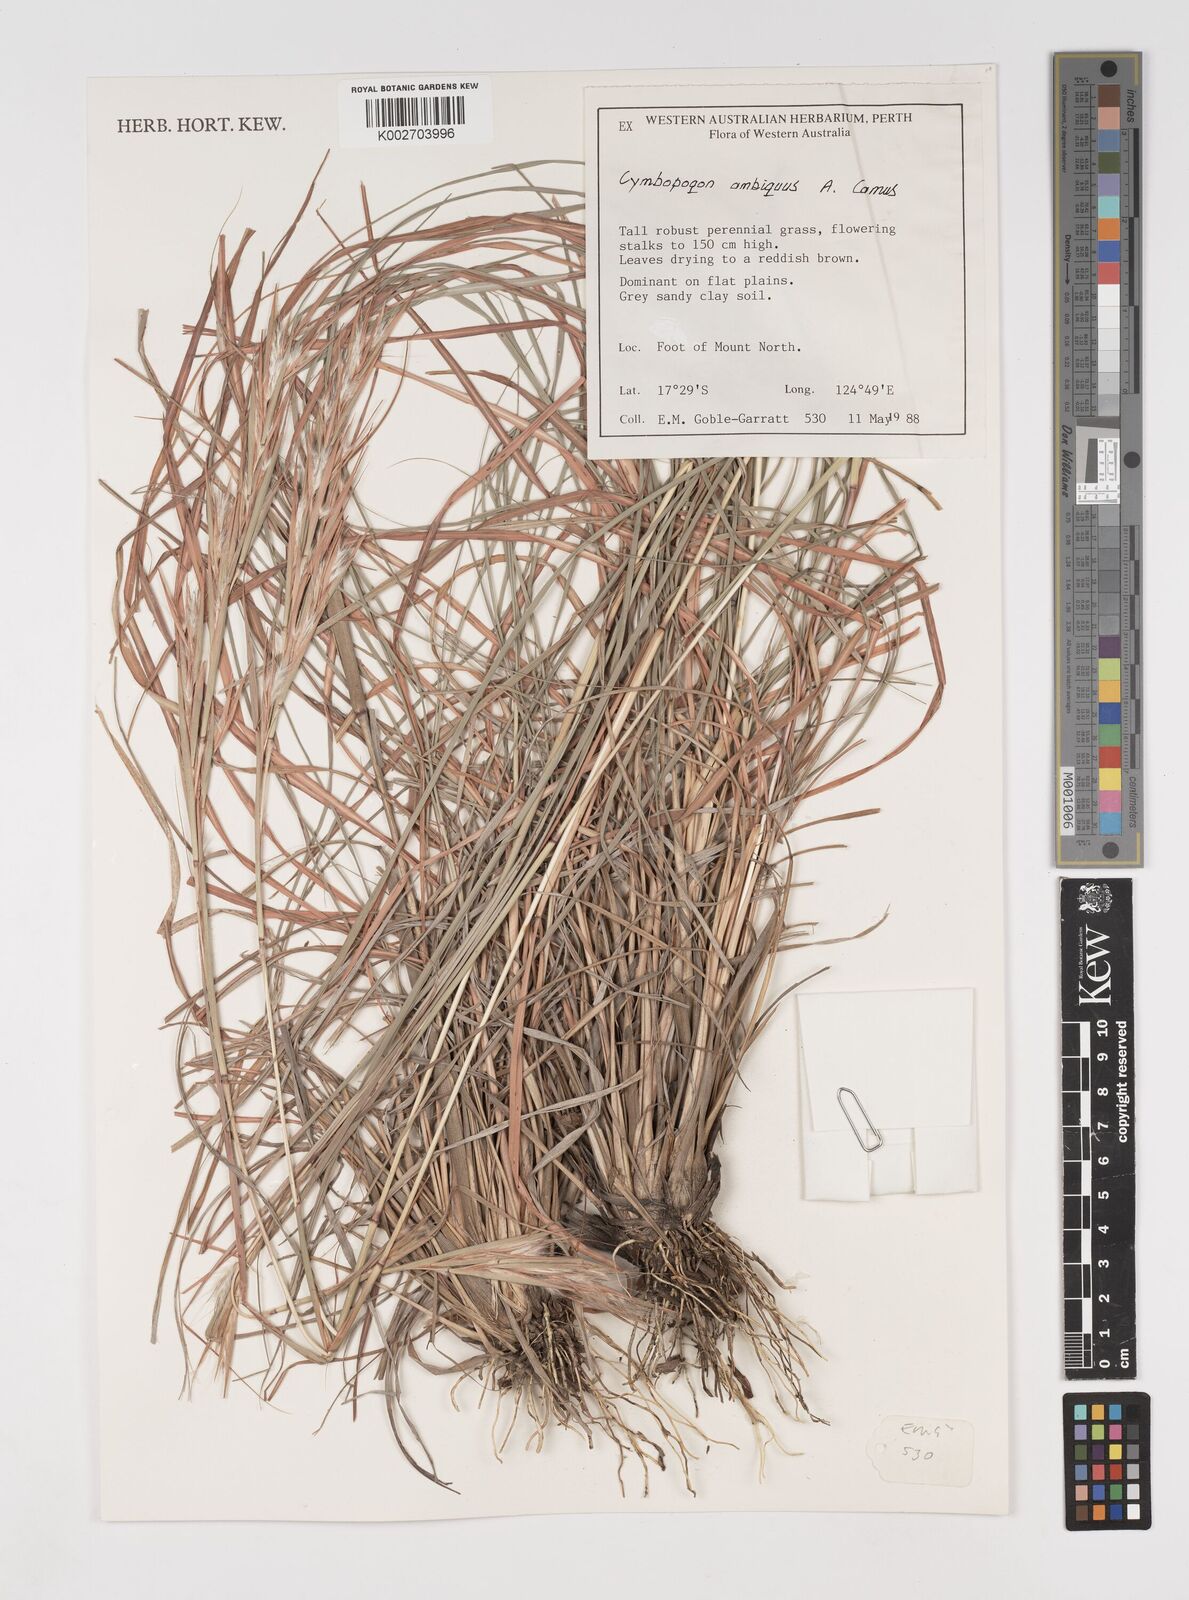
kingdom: Plantae
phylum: Tracheophyta
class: Liliopsida
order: Poales
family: Poaceae
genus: Cymbopogon
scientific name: Cymbopogon ambiguus
